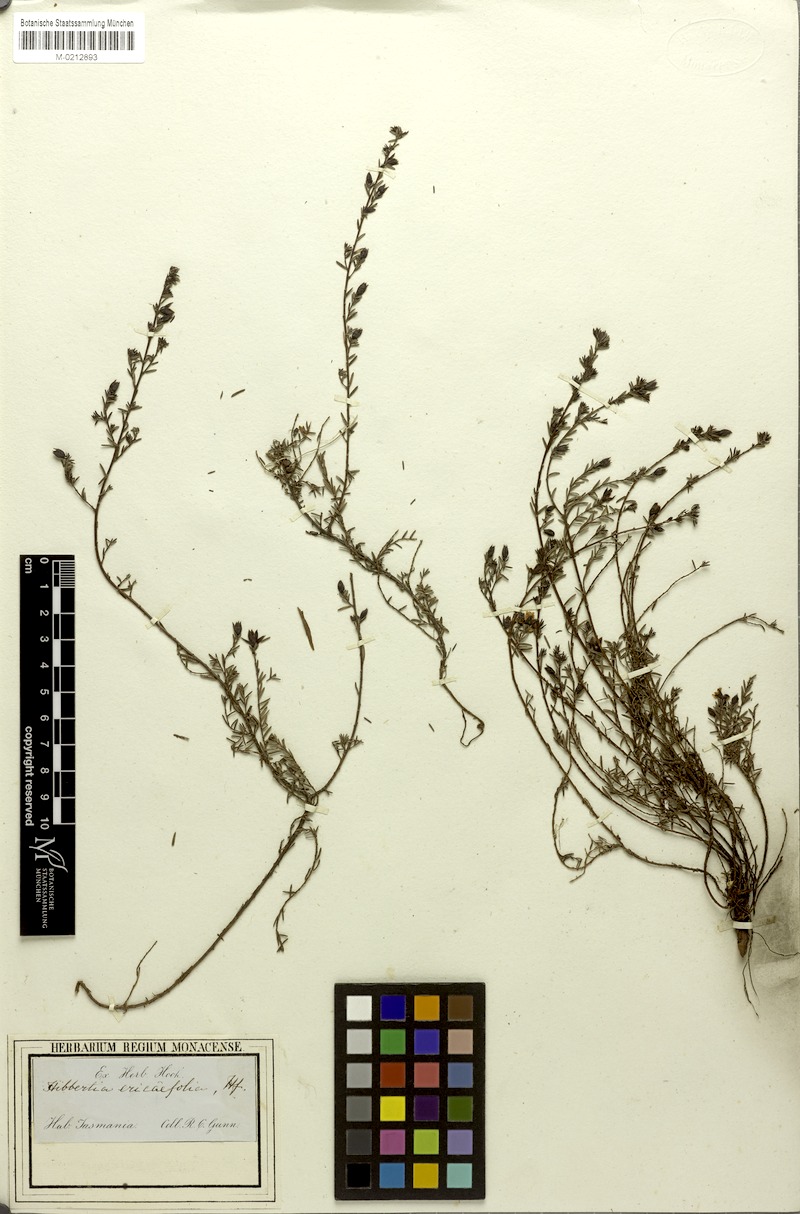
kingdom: Plantae
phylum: Tracheophyta
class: Magnoliopsida
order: Dilleniales
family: Dilleniaceae
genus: Hibbertia
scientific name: Hibbertia serpyllifolia
